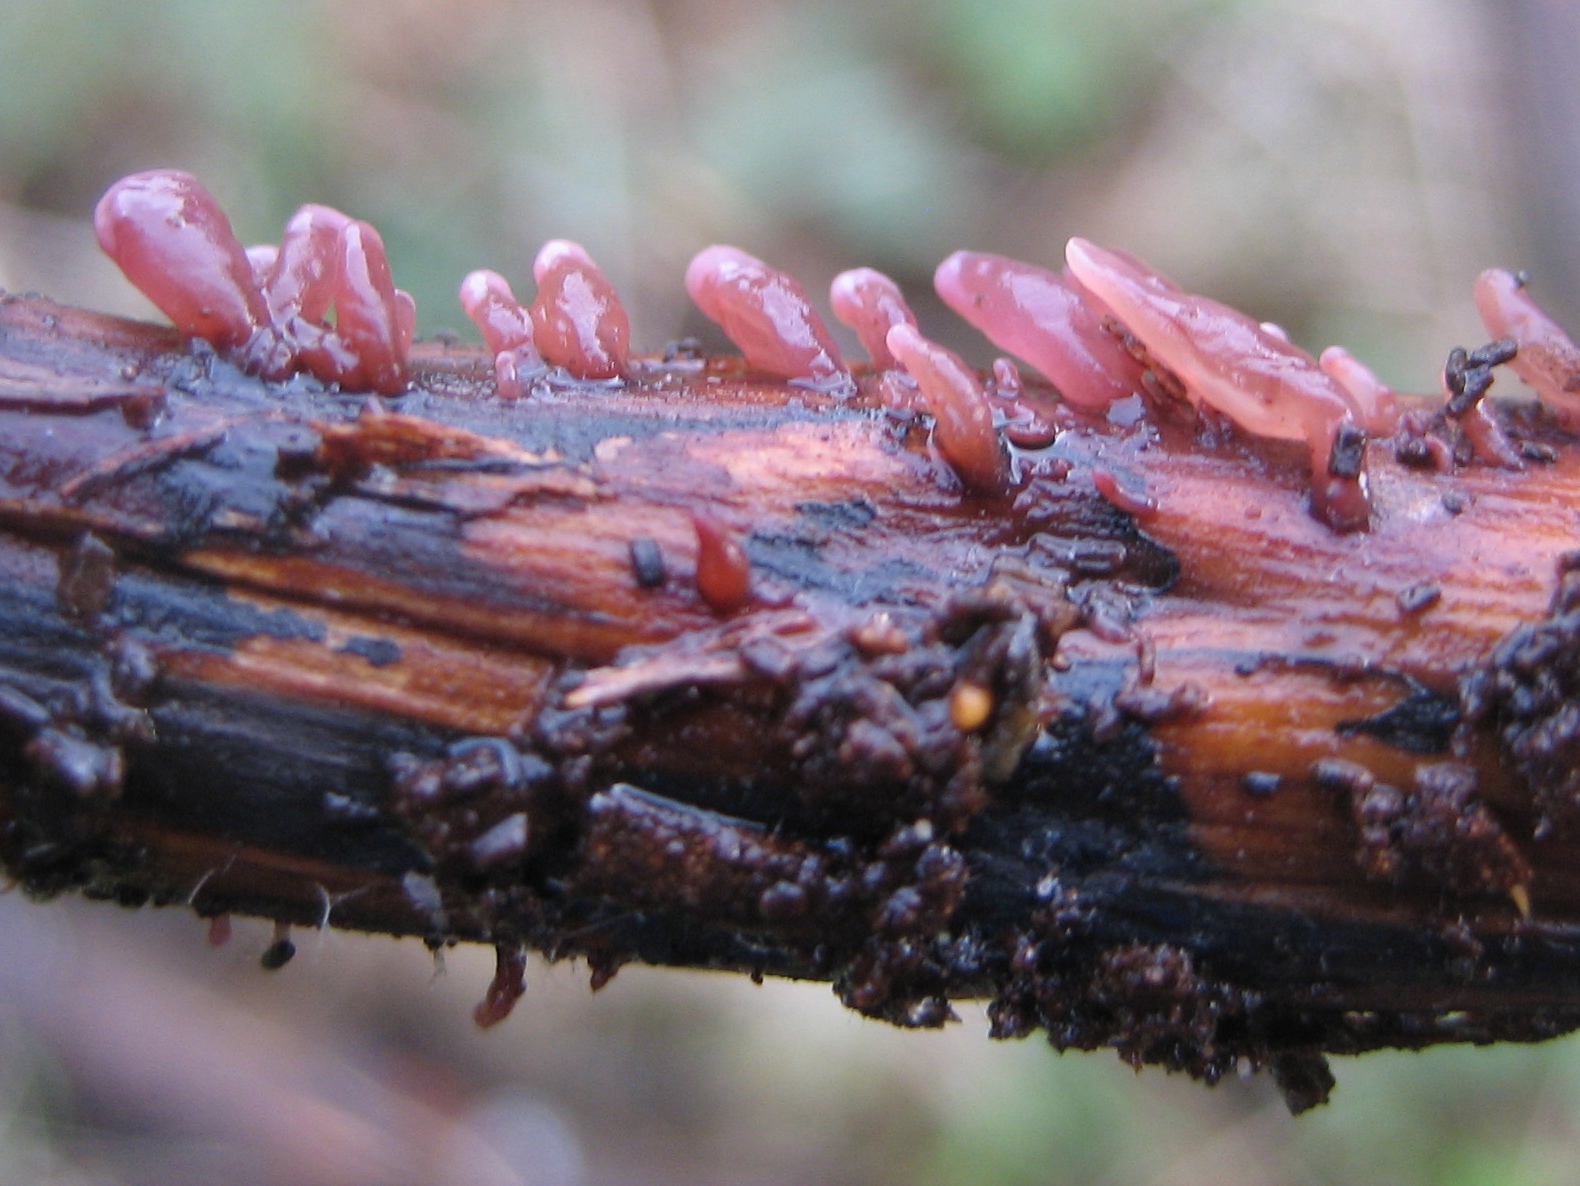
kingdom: Fungi
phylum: Ascomycota
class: Leotiomycetes
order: Helotiales
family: Gelatinodiscaceae
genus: Ascocoryne
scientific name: Ascocoryne sarcoides
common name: rødlilla sejskive
